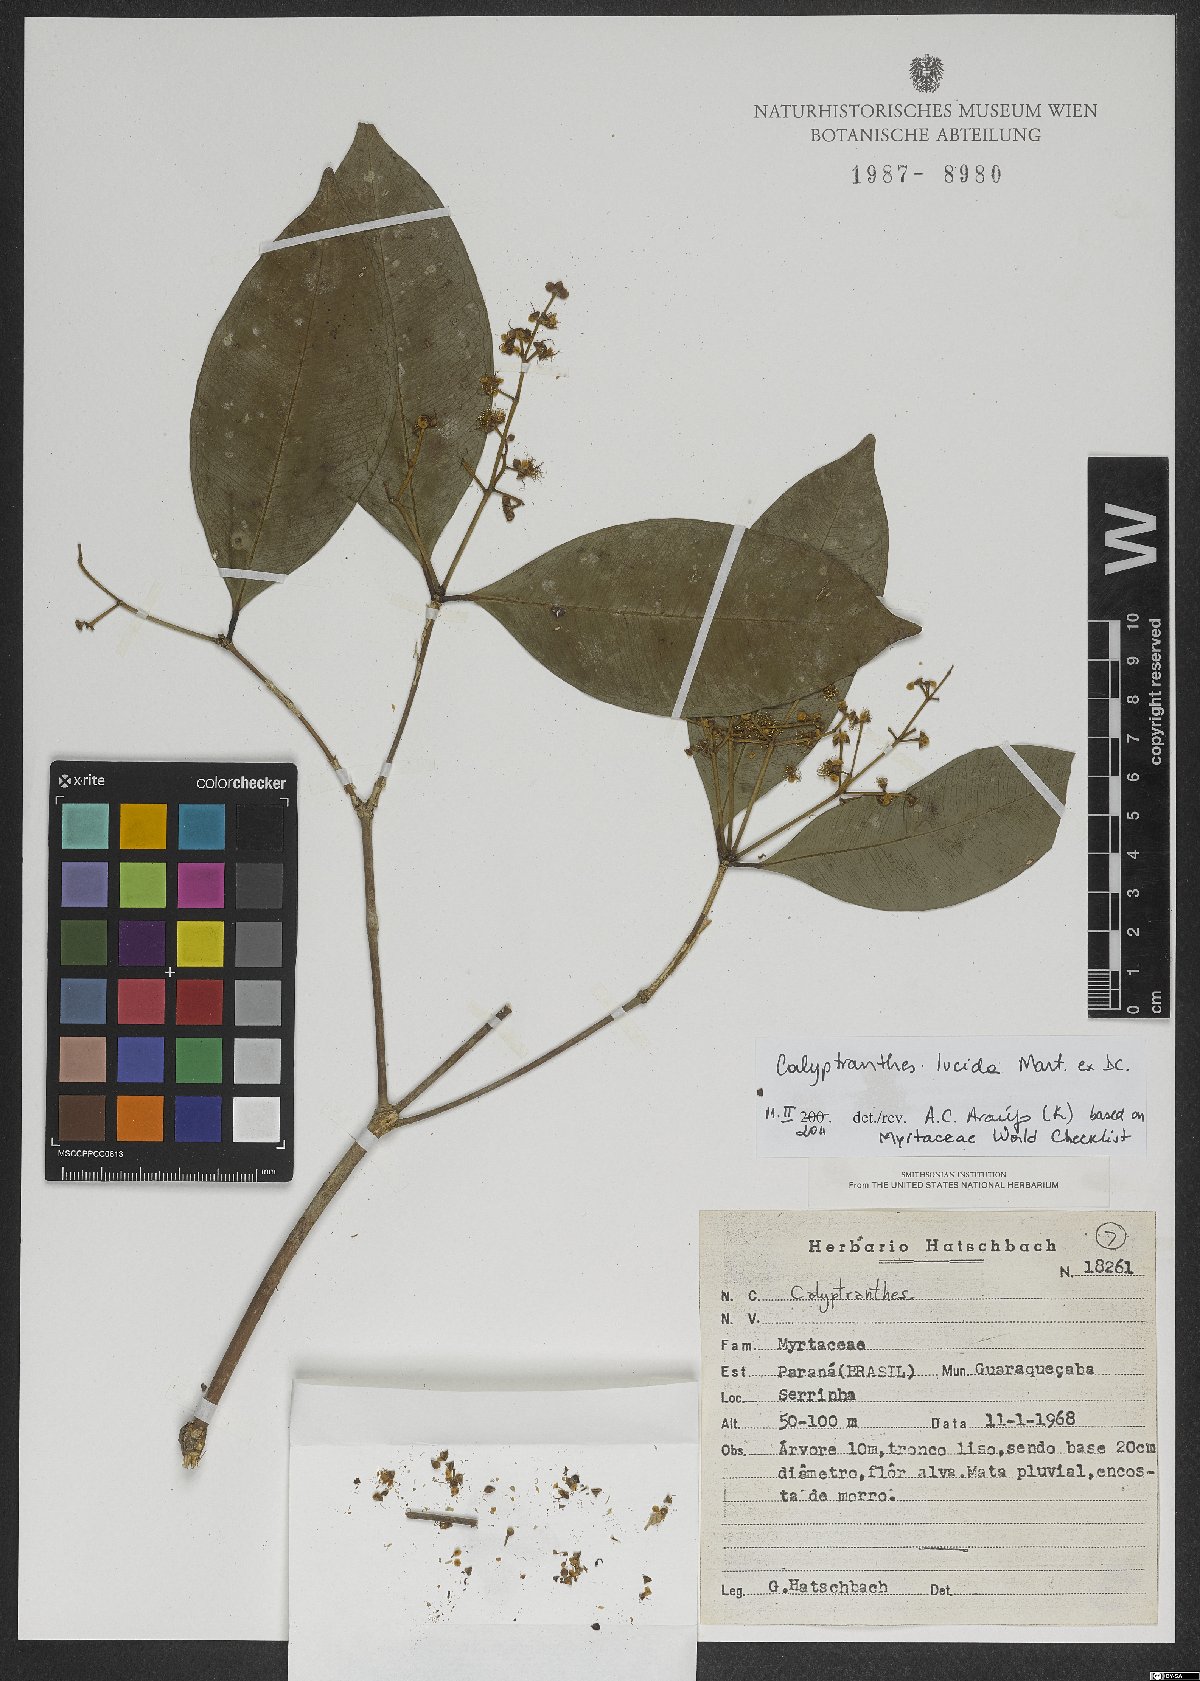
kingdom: Plantae
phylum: Tracheophyta
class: Magnoliopsida
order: Myrtales
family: Myrtaceae
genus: Myrcia
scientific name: Myrcia neolucida
